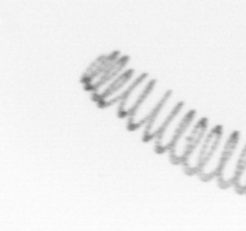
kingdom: Chromista
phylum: Ochrophyta
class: Bacillariophyceae
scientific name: Bacillariophyceae
